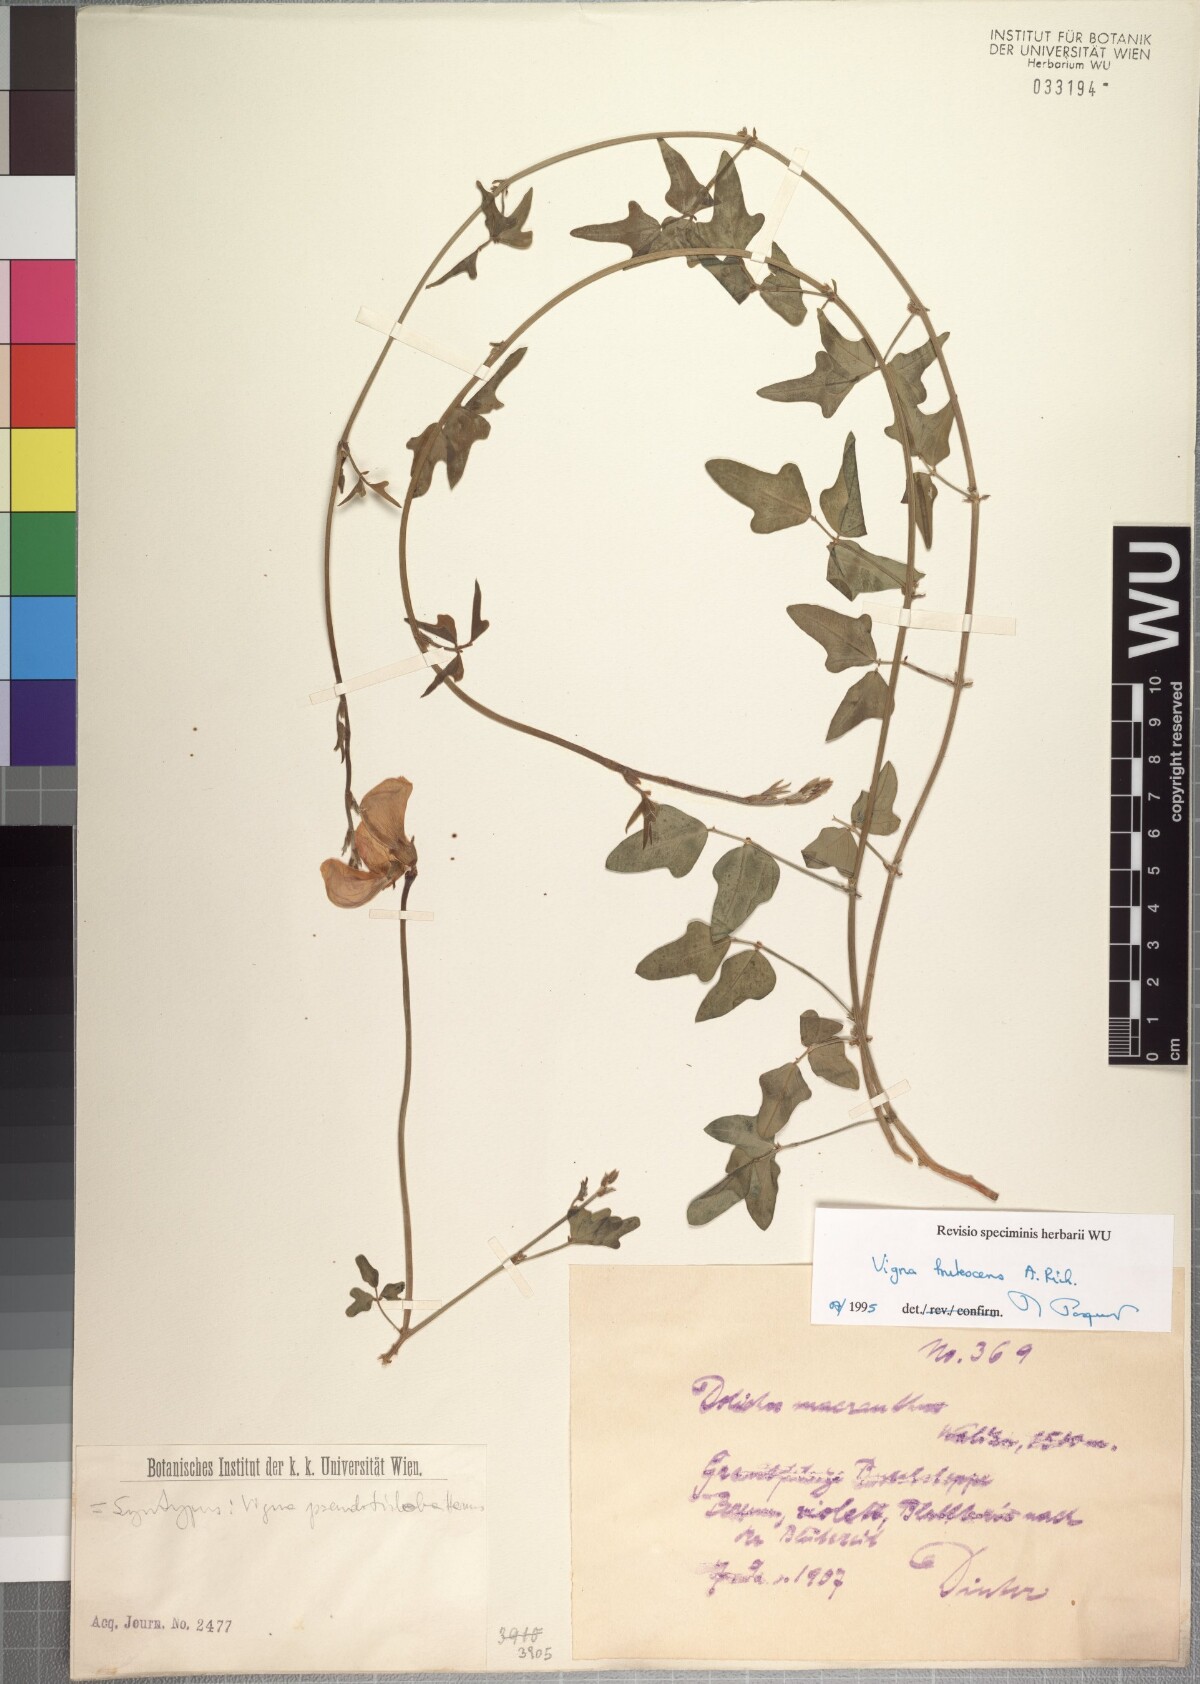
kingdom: Plantae
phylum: Tracheophyta
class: Magnoliopsida
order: Fabales
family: Fabaceae
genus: Vigna
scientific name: Vigna frutescens
